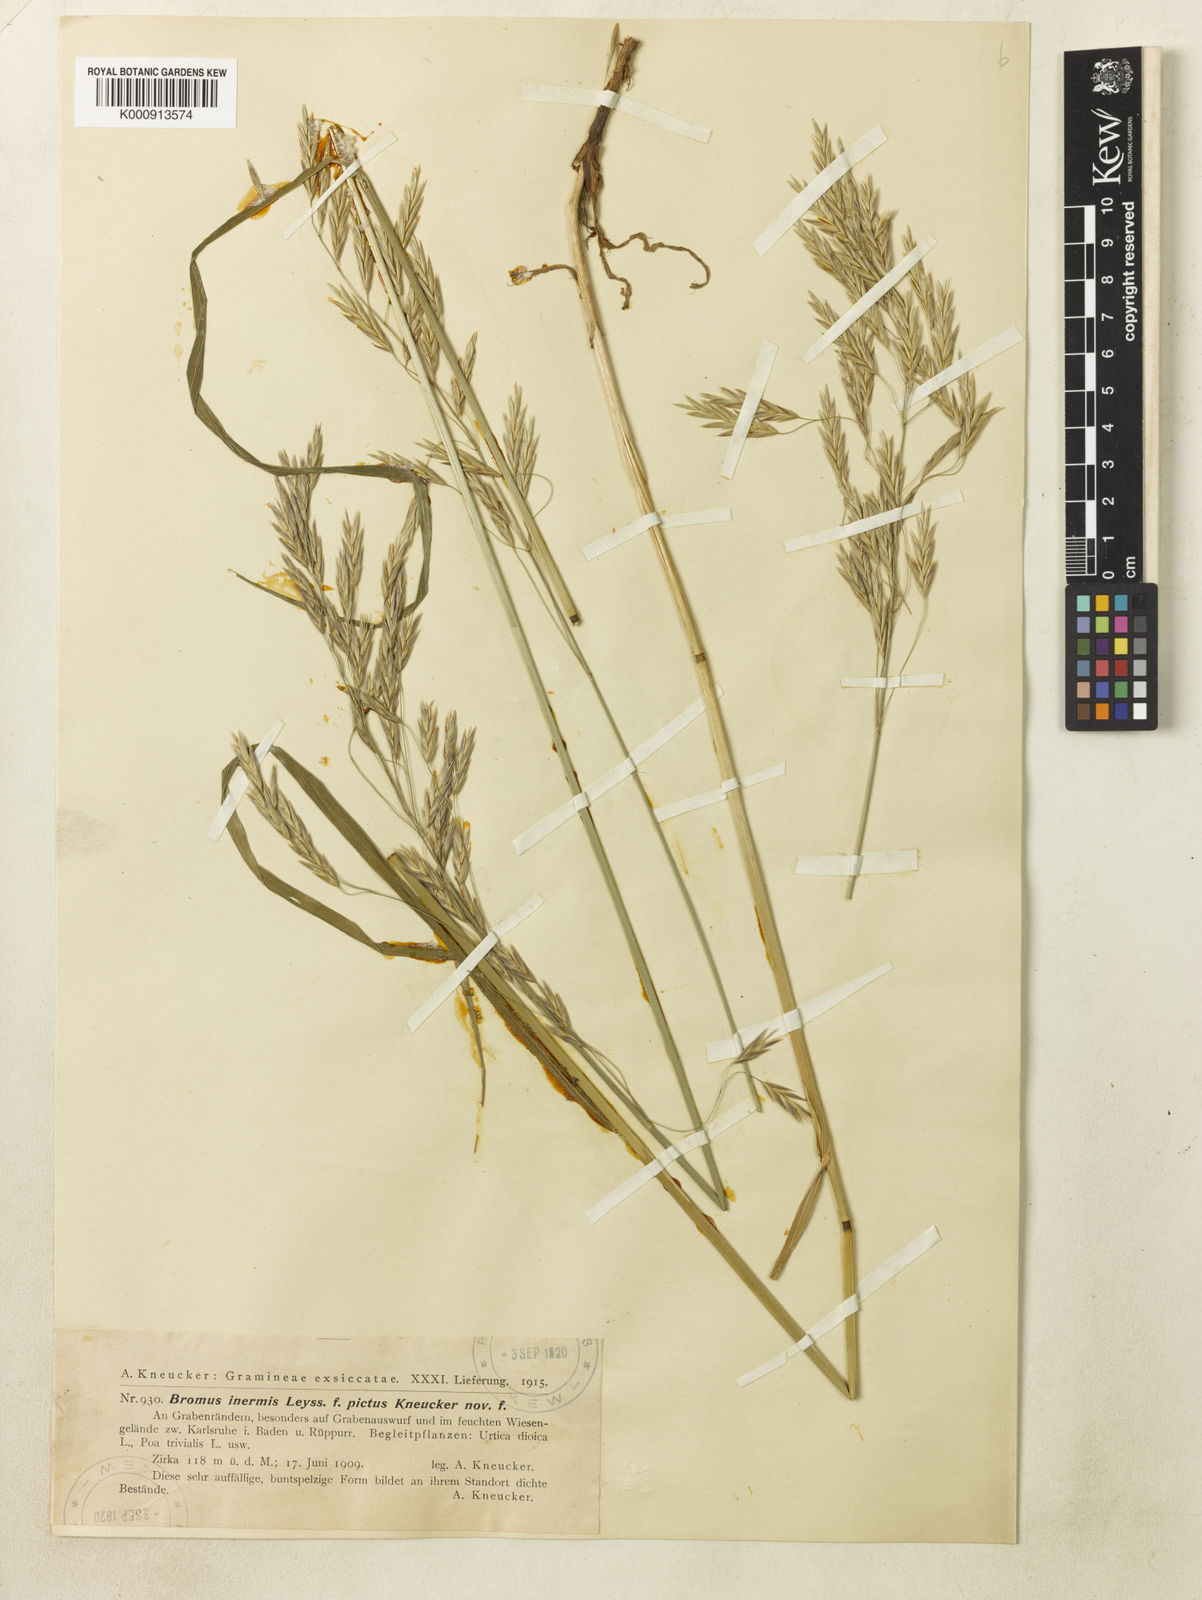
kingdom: Plantae
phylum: Tracheophyta
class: Liliopsida
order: Poales
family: Poaceae
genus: Bromus
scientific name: Bromus inermis
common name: Smooth brome
